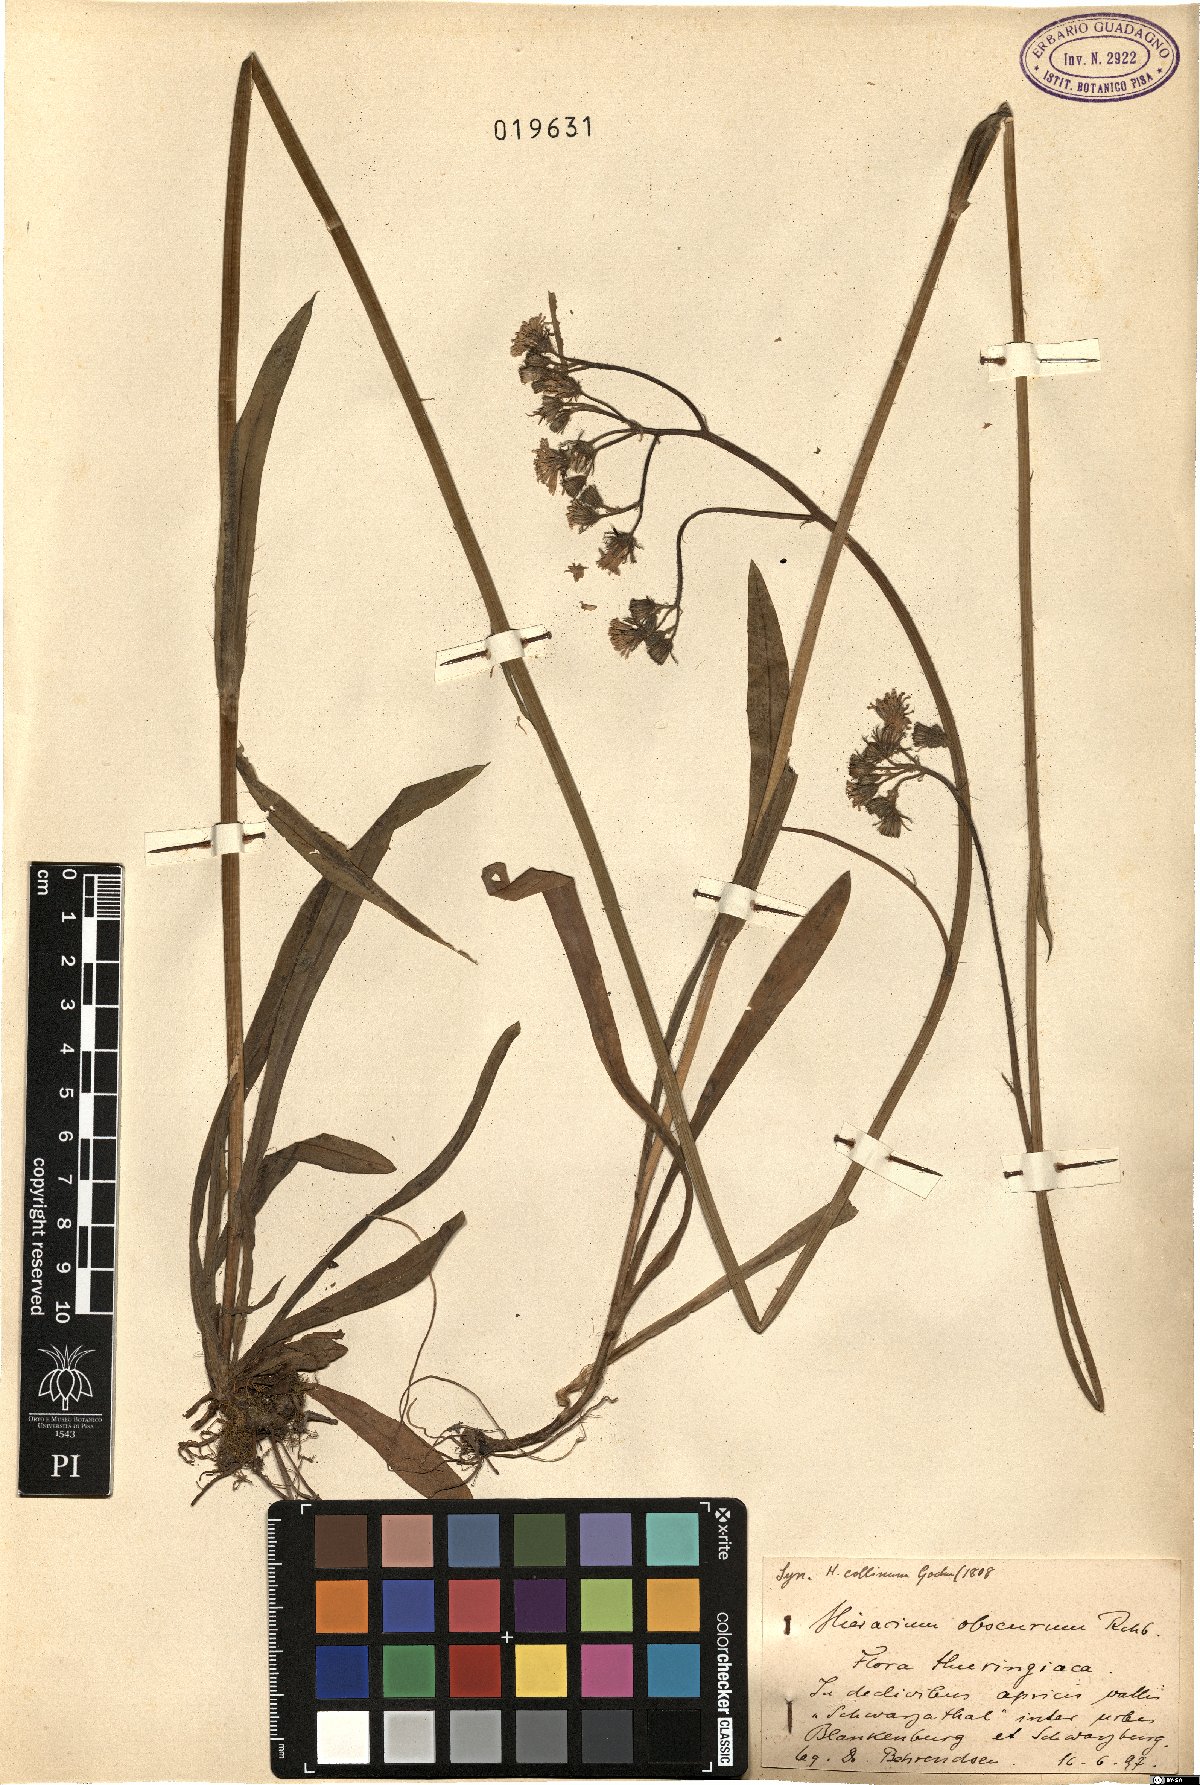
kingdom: Plantae
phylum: Tracheophyta
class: Magnoliopsida
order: Asterales
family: Asteraceae
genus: Pilosella
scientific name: Pilosella piloselloides
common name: Glaucous king-devil
